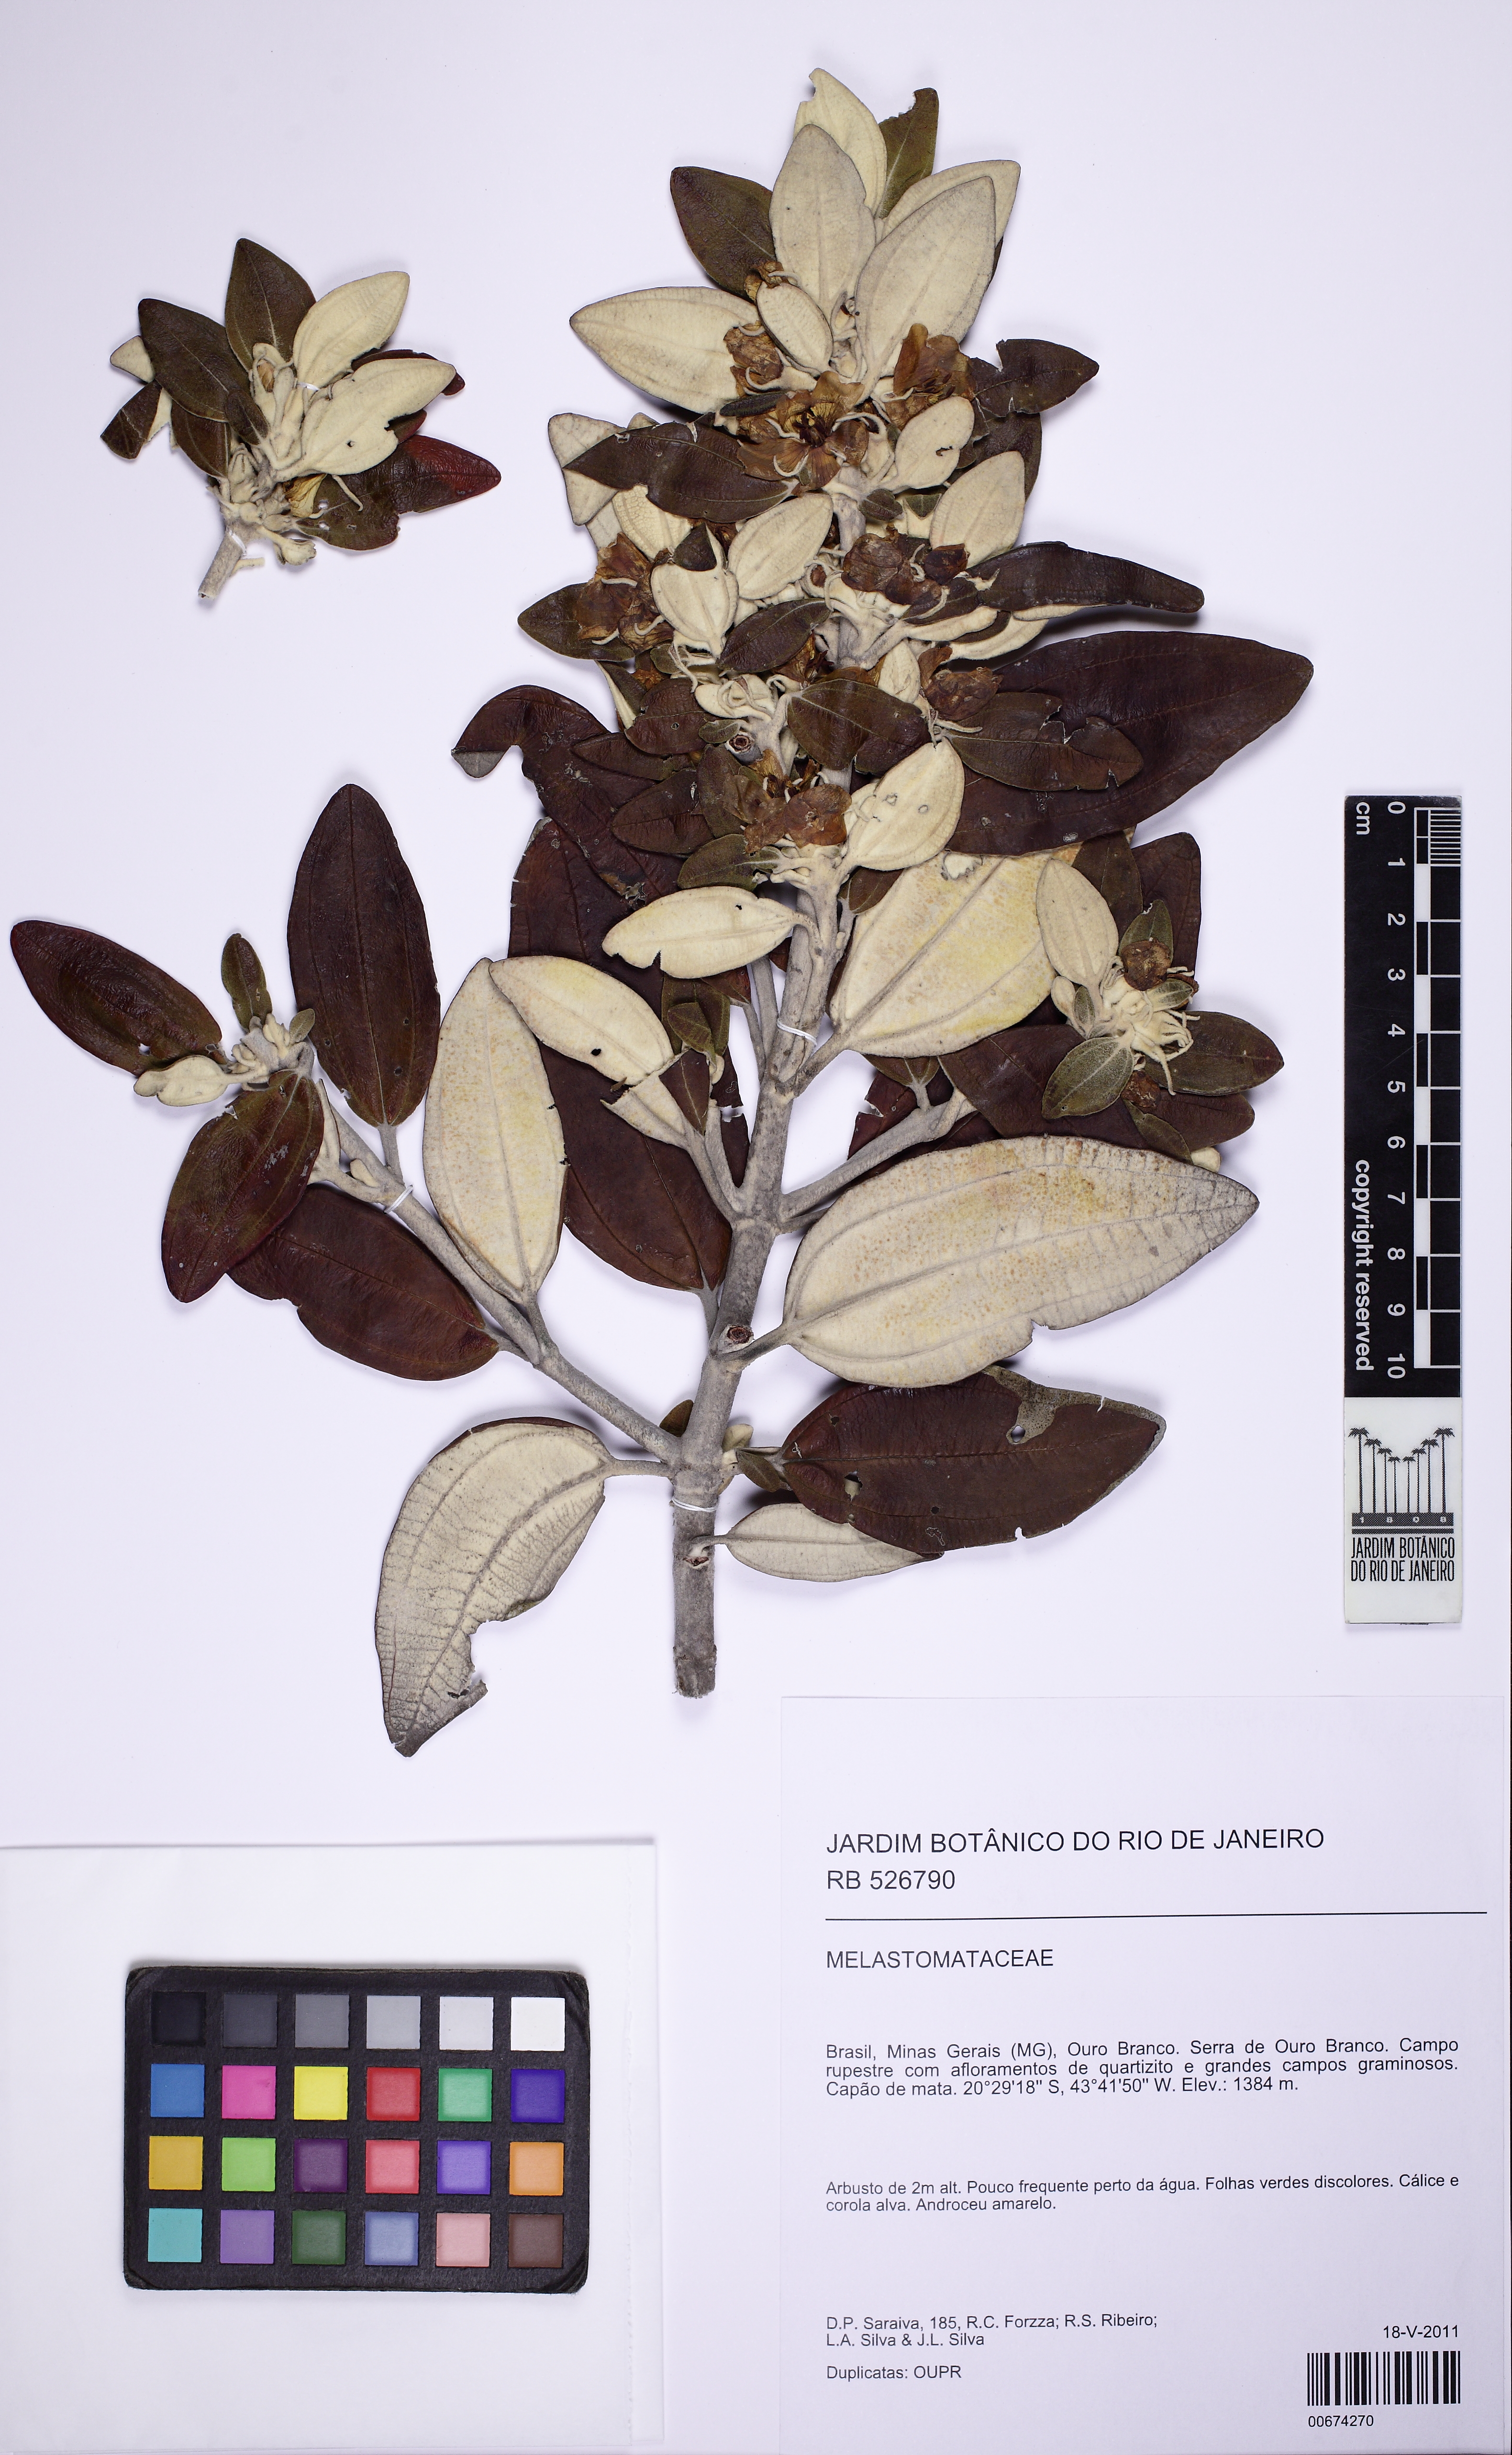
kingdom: Plantae
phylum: Tracheophyta
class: Magnoliopsida
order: Myrtales
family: Melastomataceae
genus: Microlicia
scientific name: Microlicia laniflora
